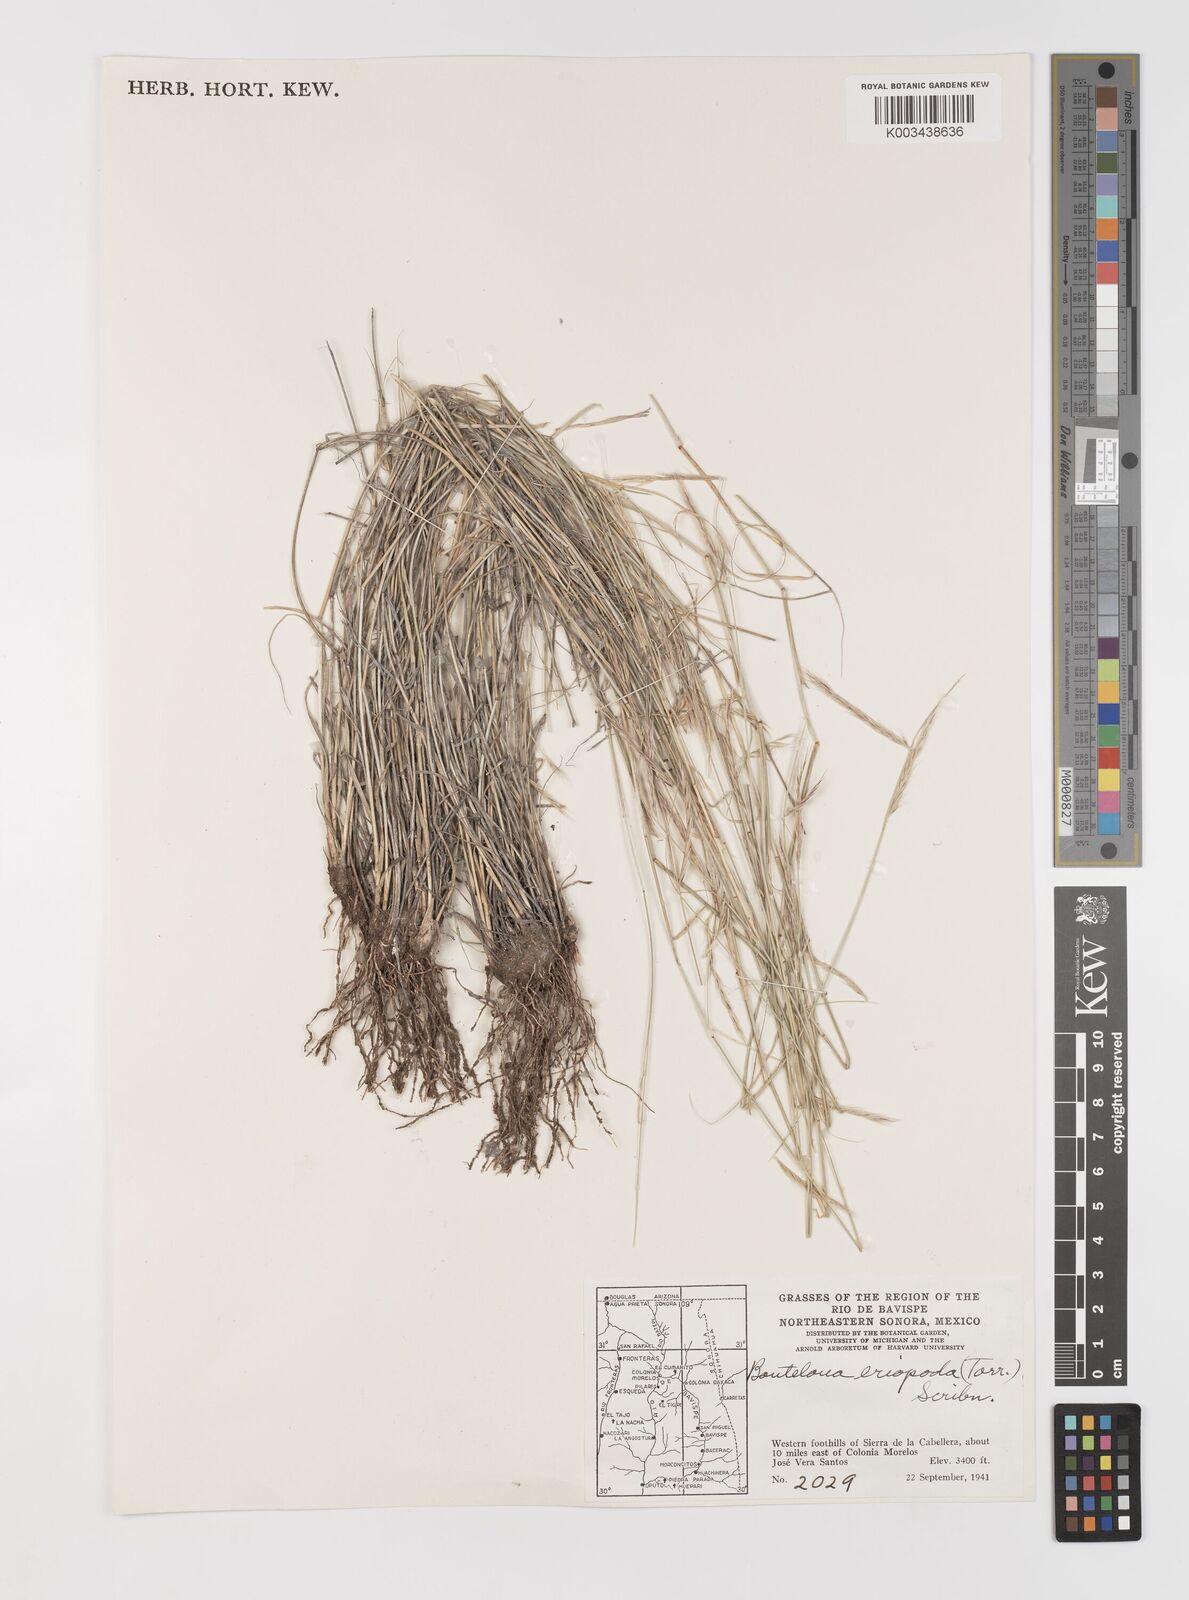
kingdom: Plantae
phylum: Tracheophyta
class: Liliopsida
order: Poales
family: Poaceae
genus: Bouteloua
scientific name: Bouteloua eriopoda
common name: Woolly foot grama
